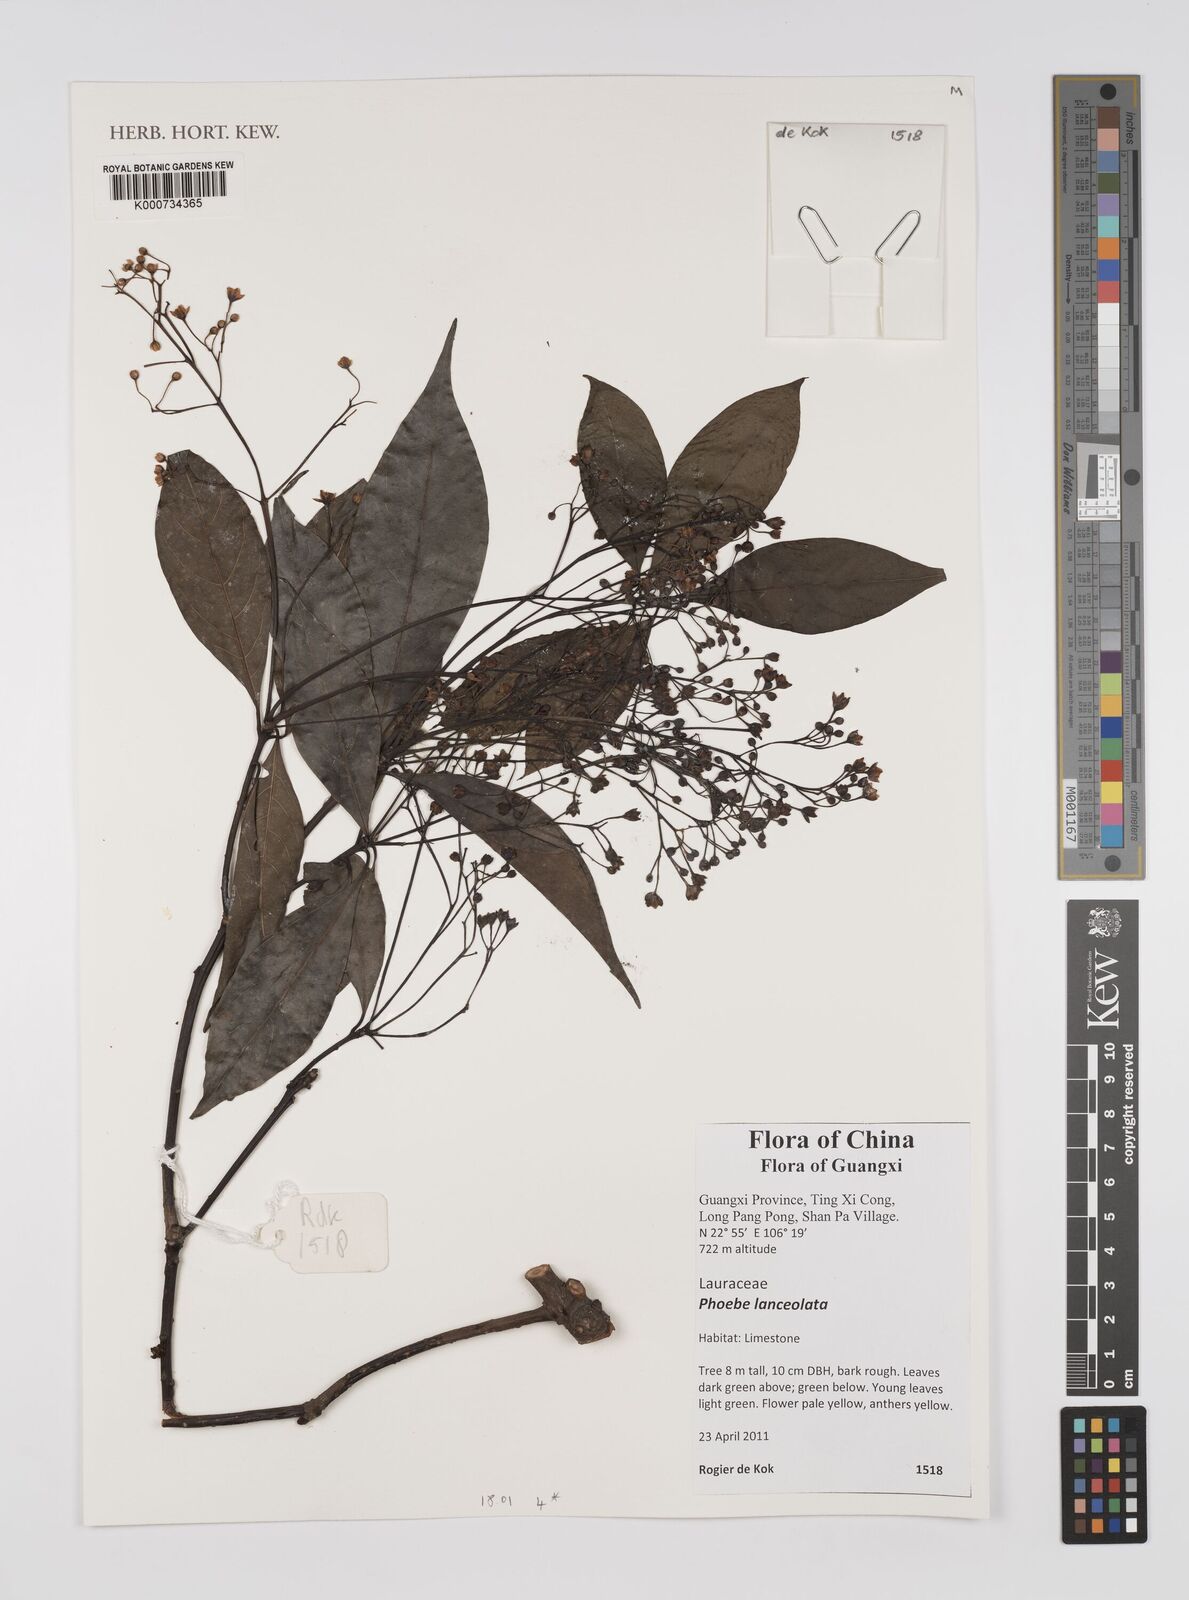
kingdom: Plantae
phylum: Tracheophyta
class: Magnoliopsida
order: Laurales
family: Lauraceae
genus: Phoebe
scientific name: Phoebe lanceolata
